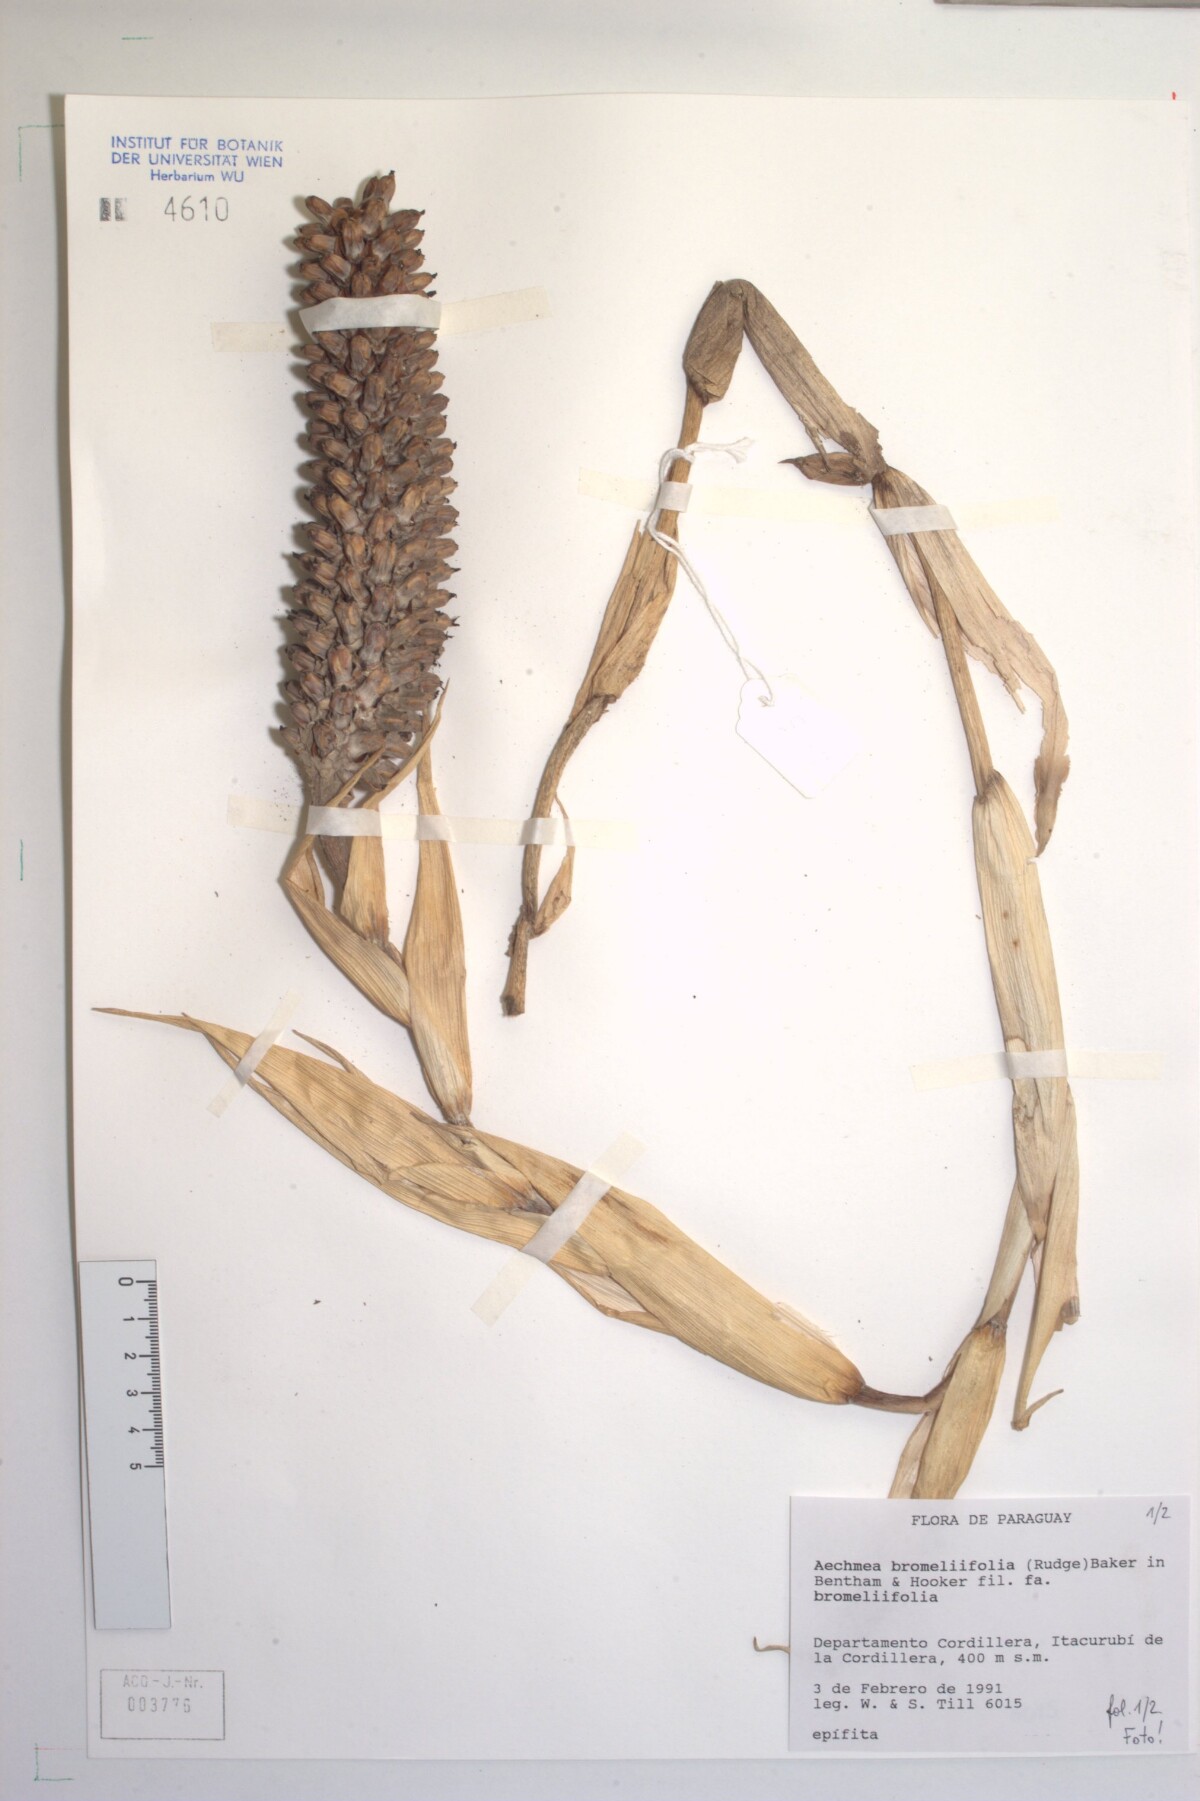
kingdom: Plantae
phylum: Tracheophyta
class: Liliopsida
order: Poales
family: Bromeliaceae
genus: Aechmea
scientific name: Aechmea bromeliifolia
